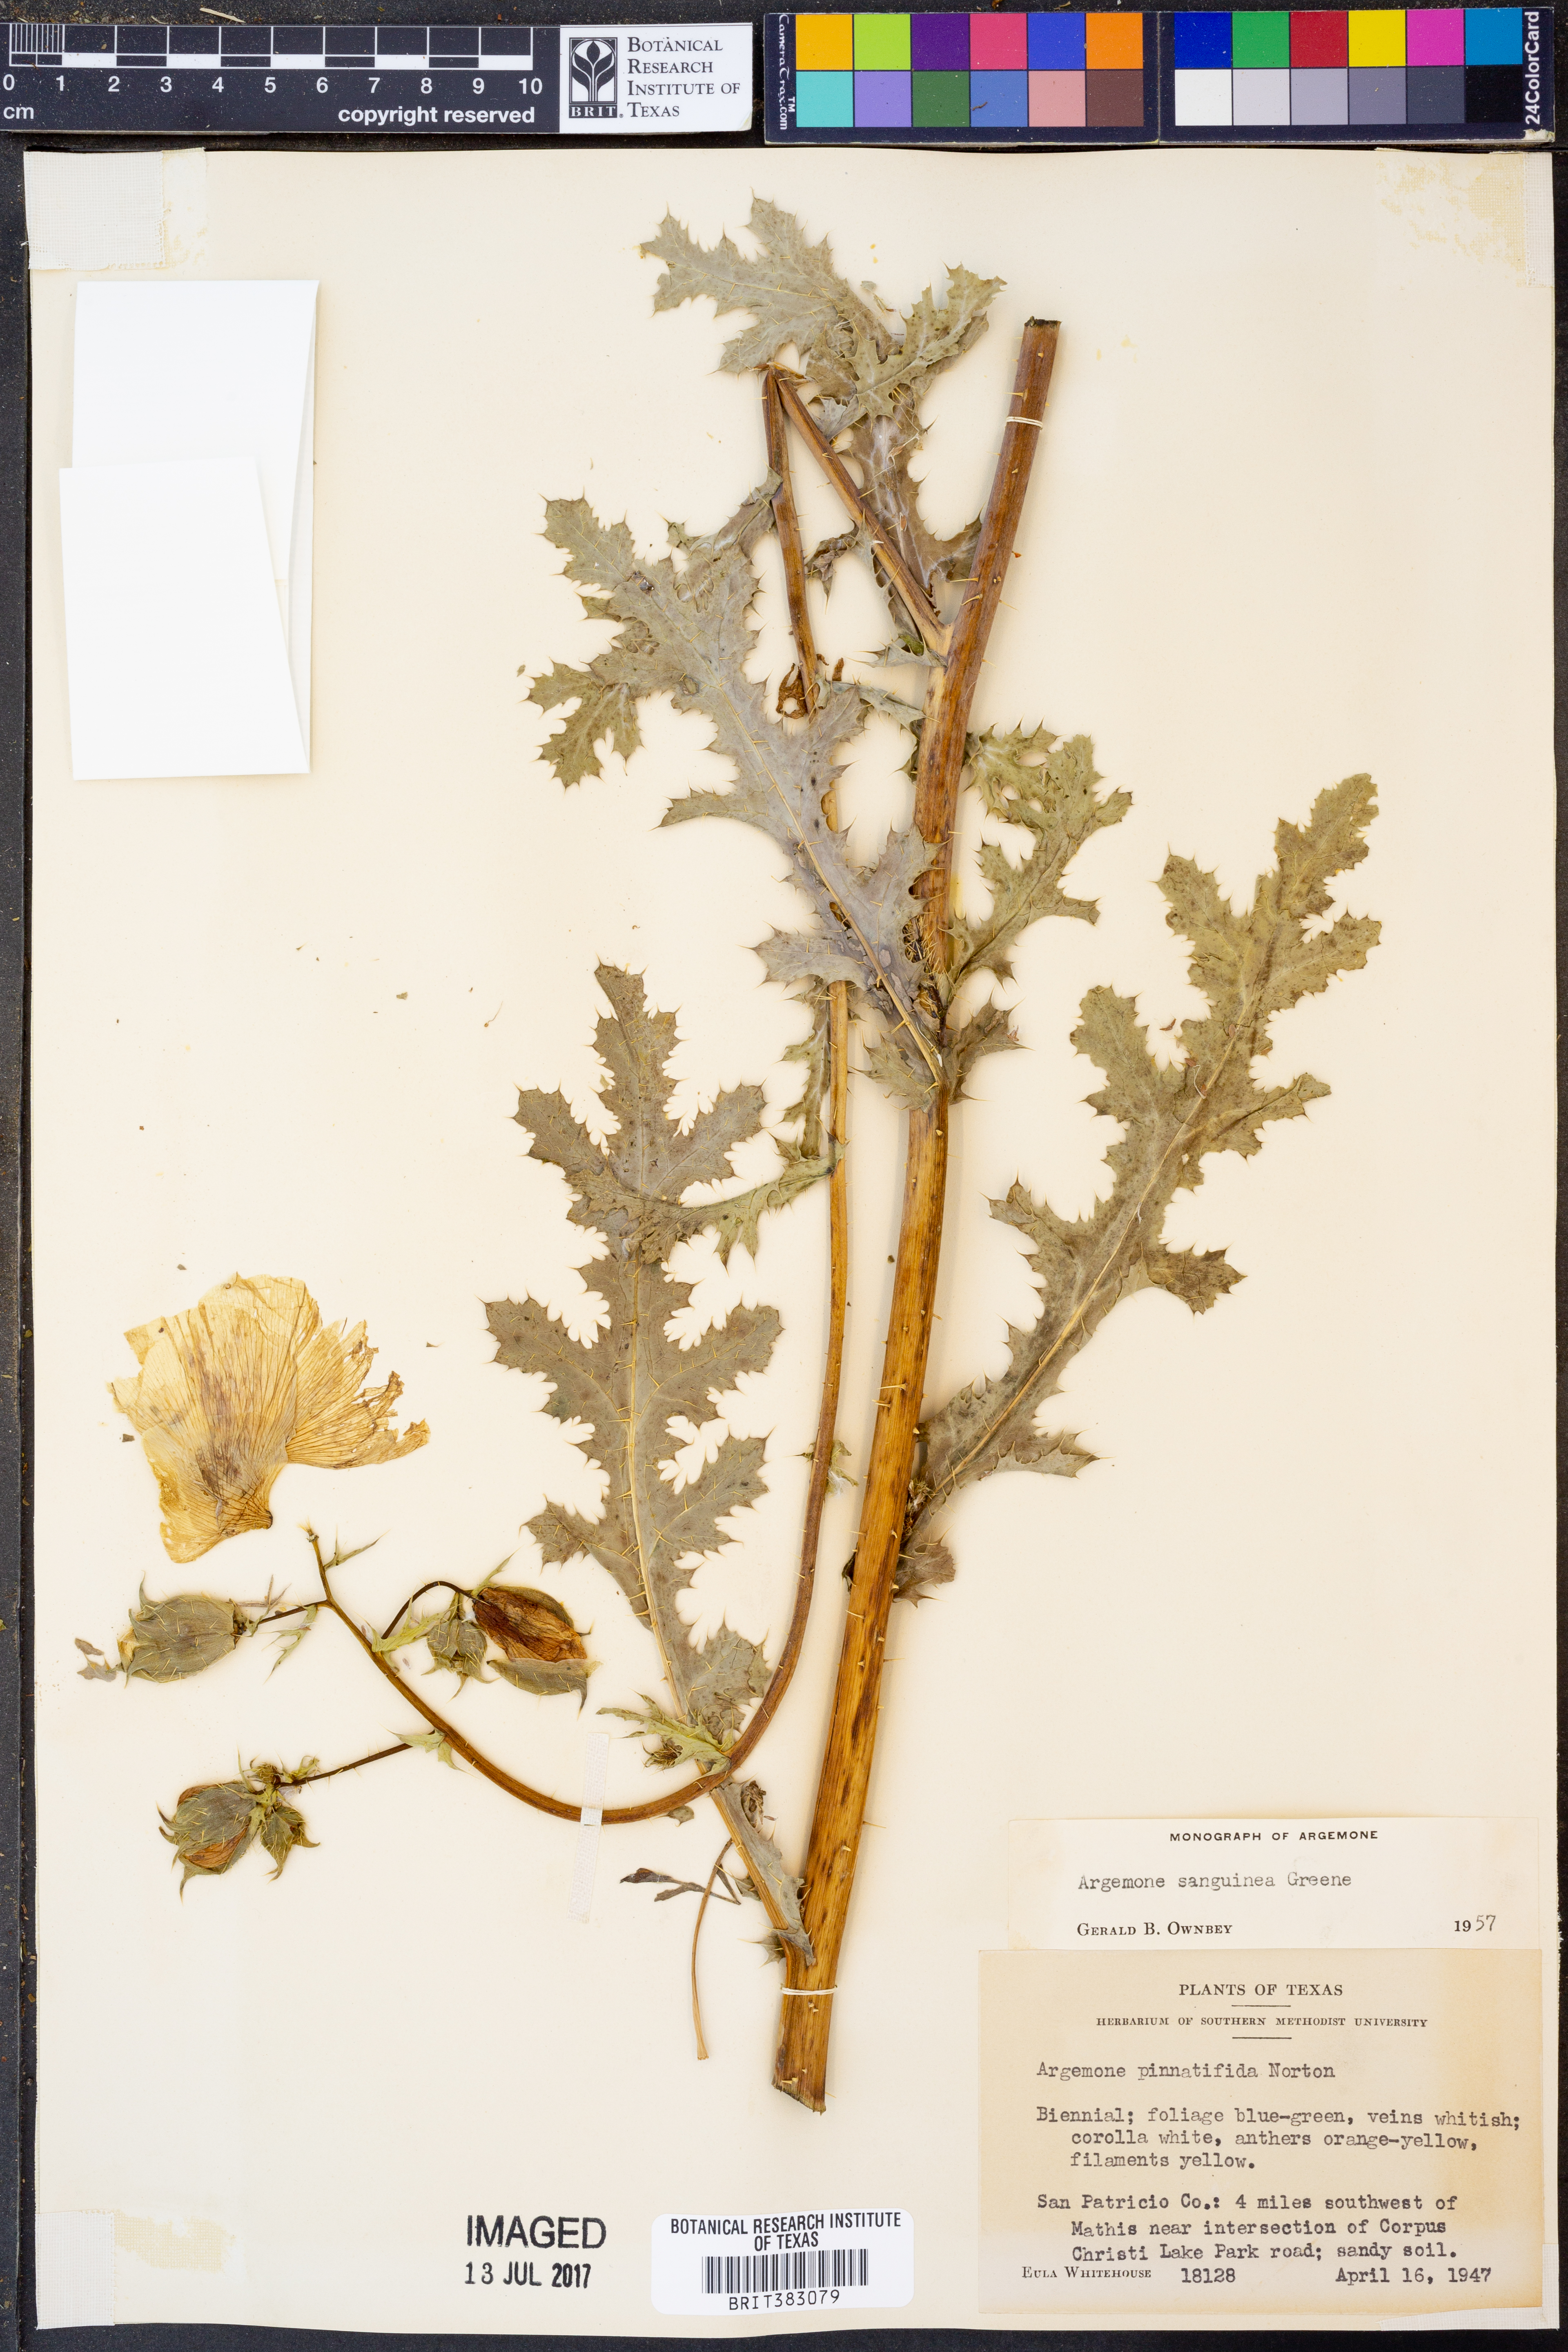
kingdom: Plantae
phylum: Tracheophyta
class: Magnoliopsida
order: Ranunculales
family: Papaveraceae
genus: Argemone
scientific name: Argemone sanguinea
